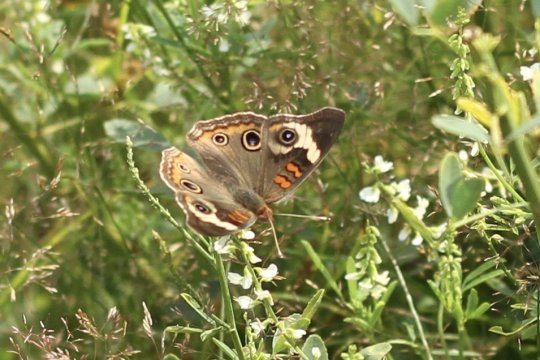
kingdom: Animalia
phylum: Arthropoda
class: Insecta
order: Lepidoptera
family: Nymphalidae
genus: Junonia
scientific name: Junonia coenia
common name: Common Buckeye
